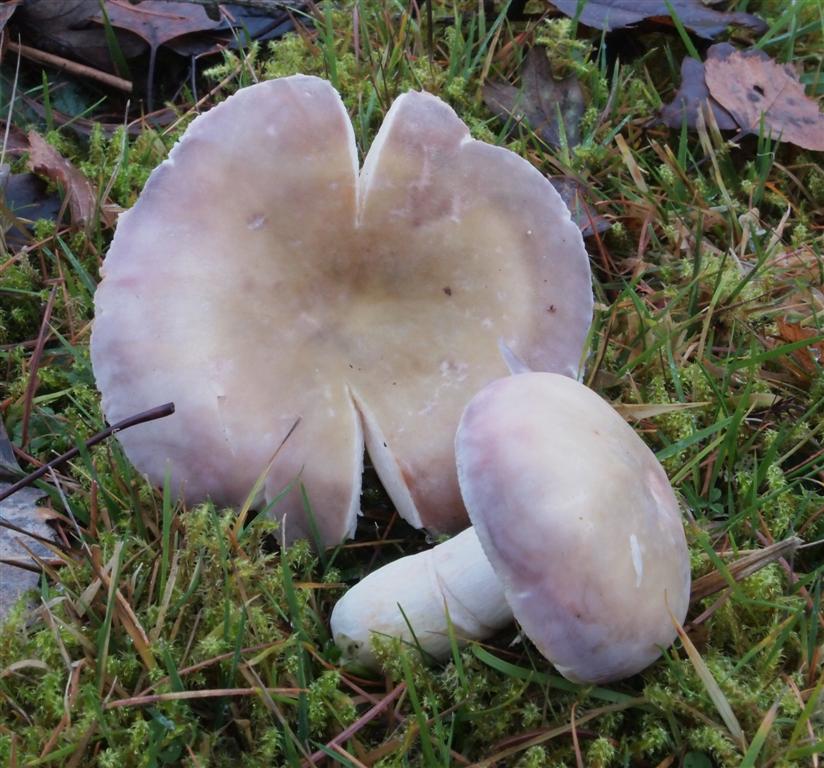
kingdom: Fungi
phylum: Basidiomycota
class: Agaricomycetes
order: Russulales
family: Russulaceae
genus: Russula
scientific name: Russula violeipes
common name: ferskengul skørhat
